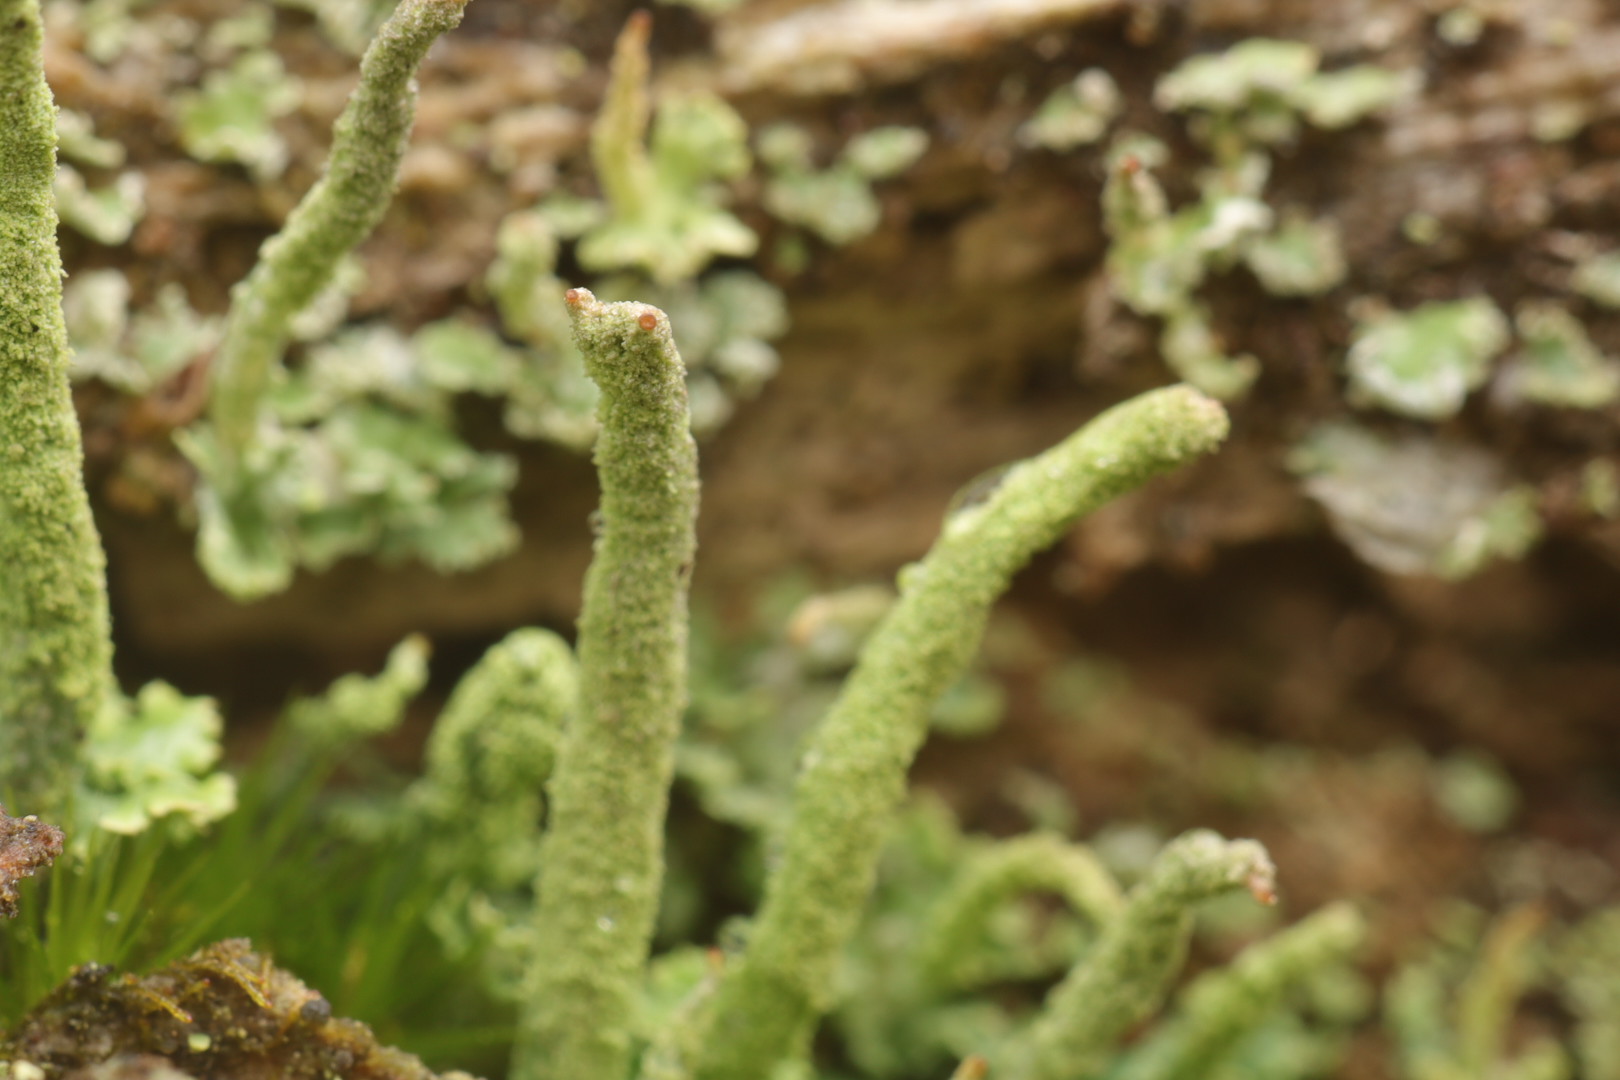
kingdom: Fungi
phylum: Ascomycota
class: Lecanoromycetes
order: Lecanorales
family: Cladoniaceae
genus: Cladonia
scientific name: Cladonia macilenta
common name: indsvunden bægerlav
